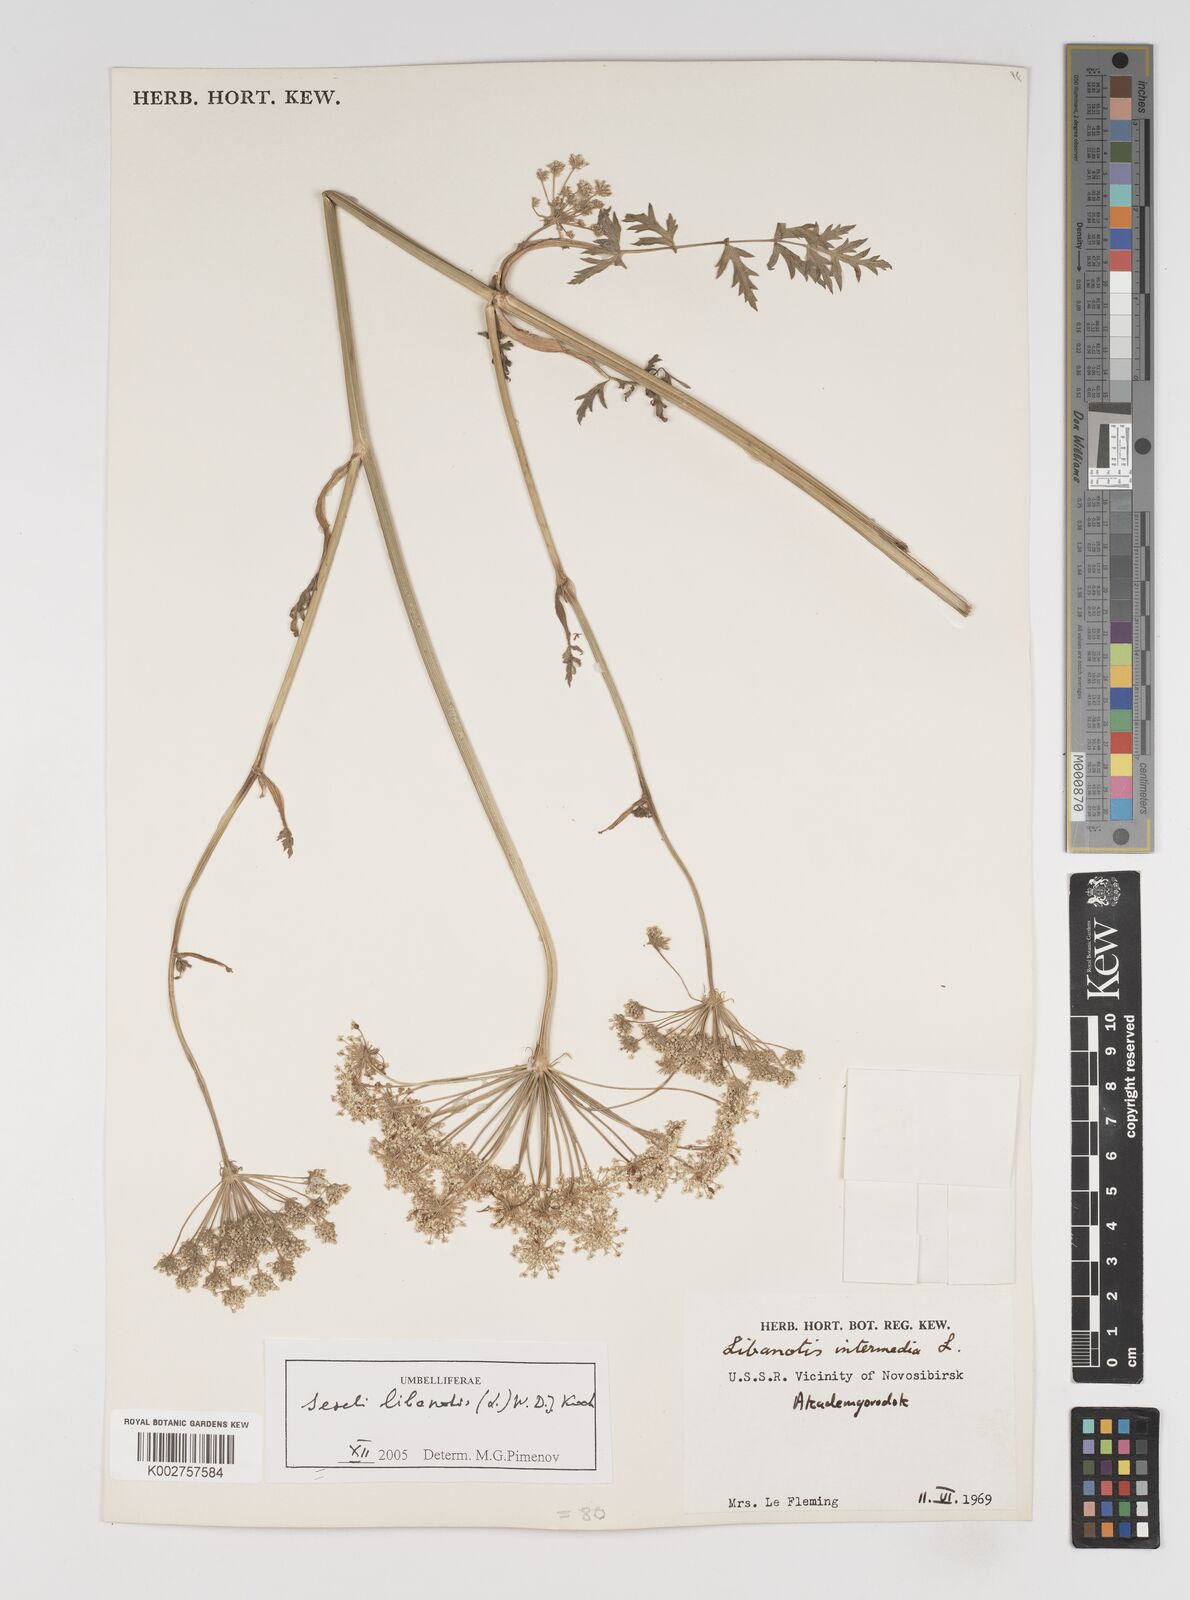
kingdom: Plantae
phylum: Tracheophyta
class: Magnoliopsida
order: Apiales
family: Apiaceae
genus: Seseli
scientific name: Seseli libanotis
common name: Mooncarrot
